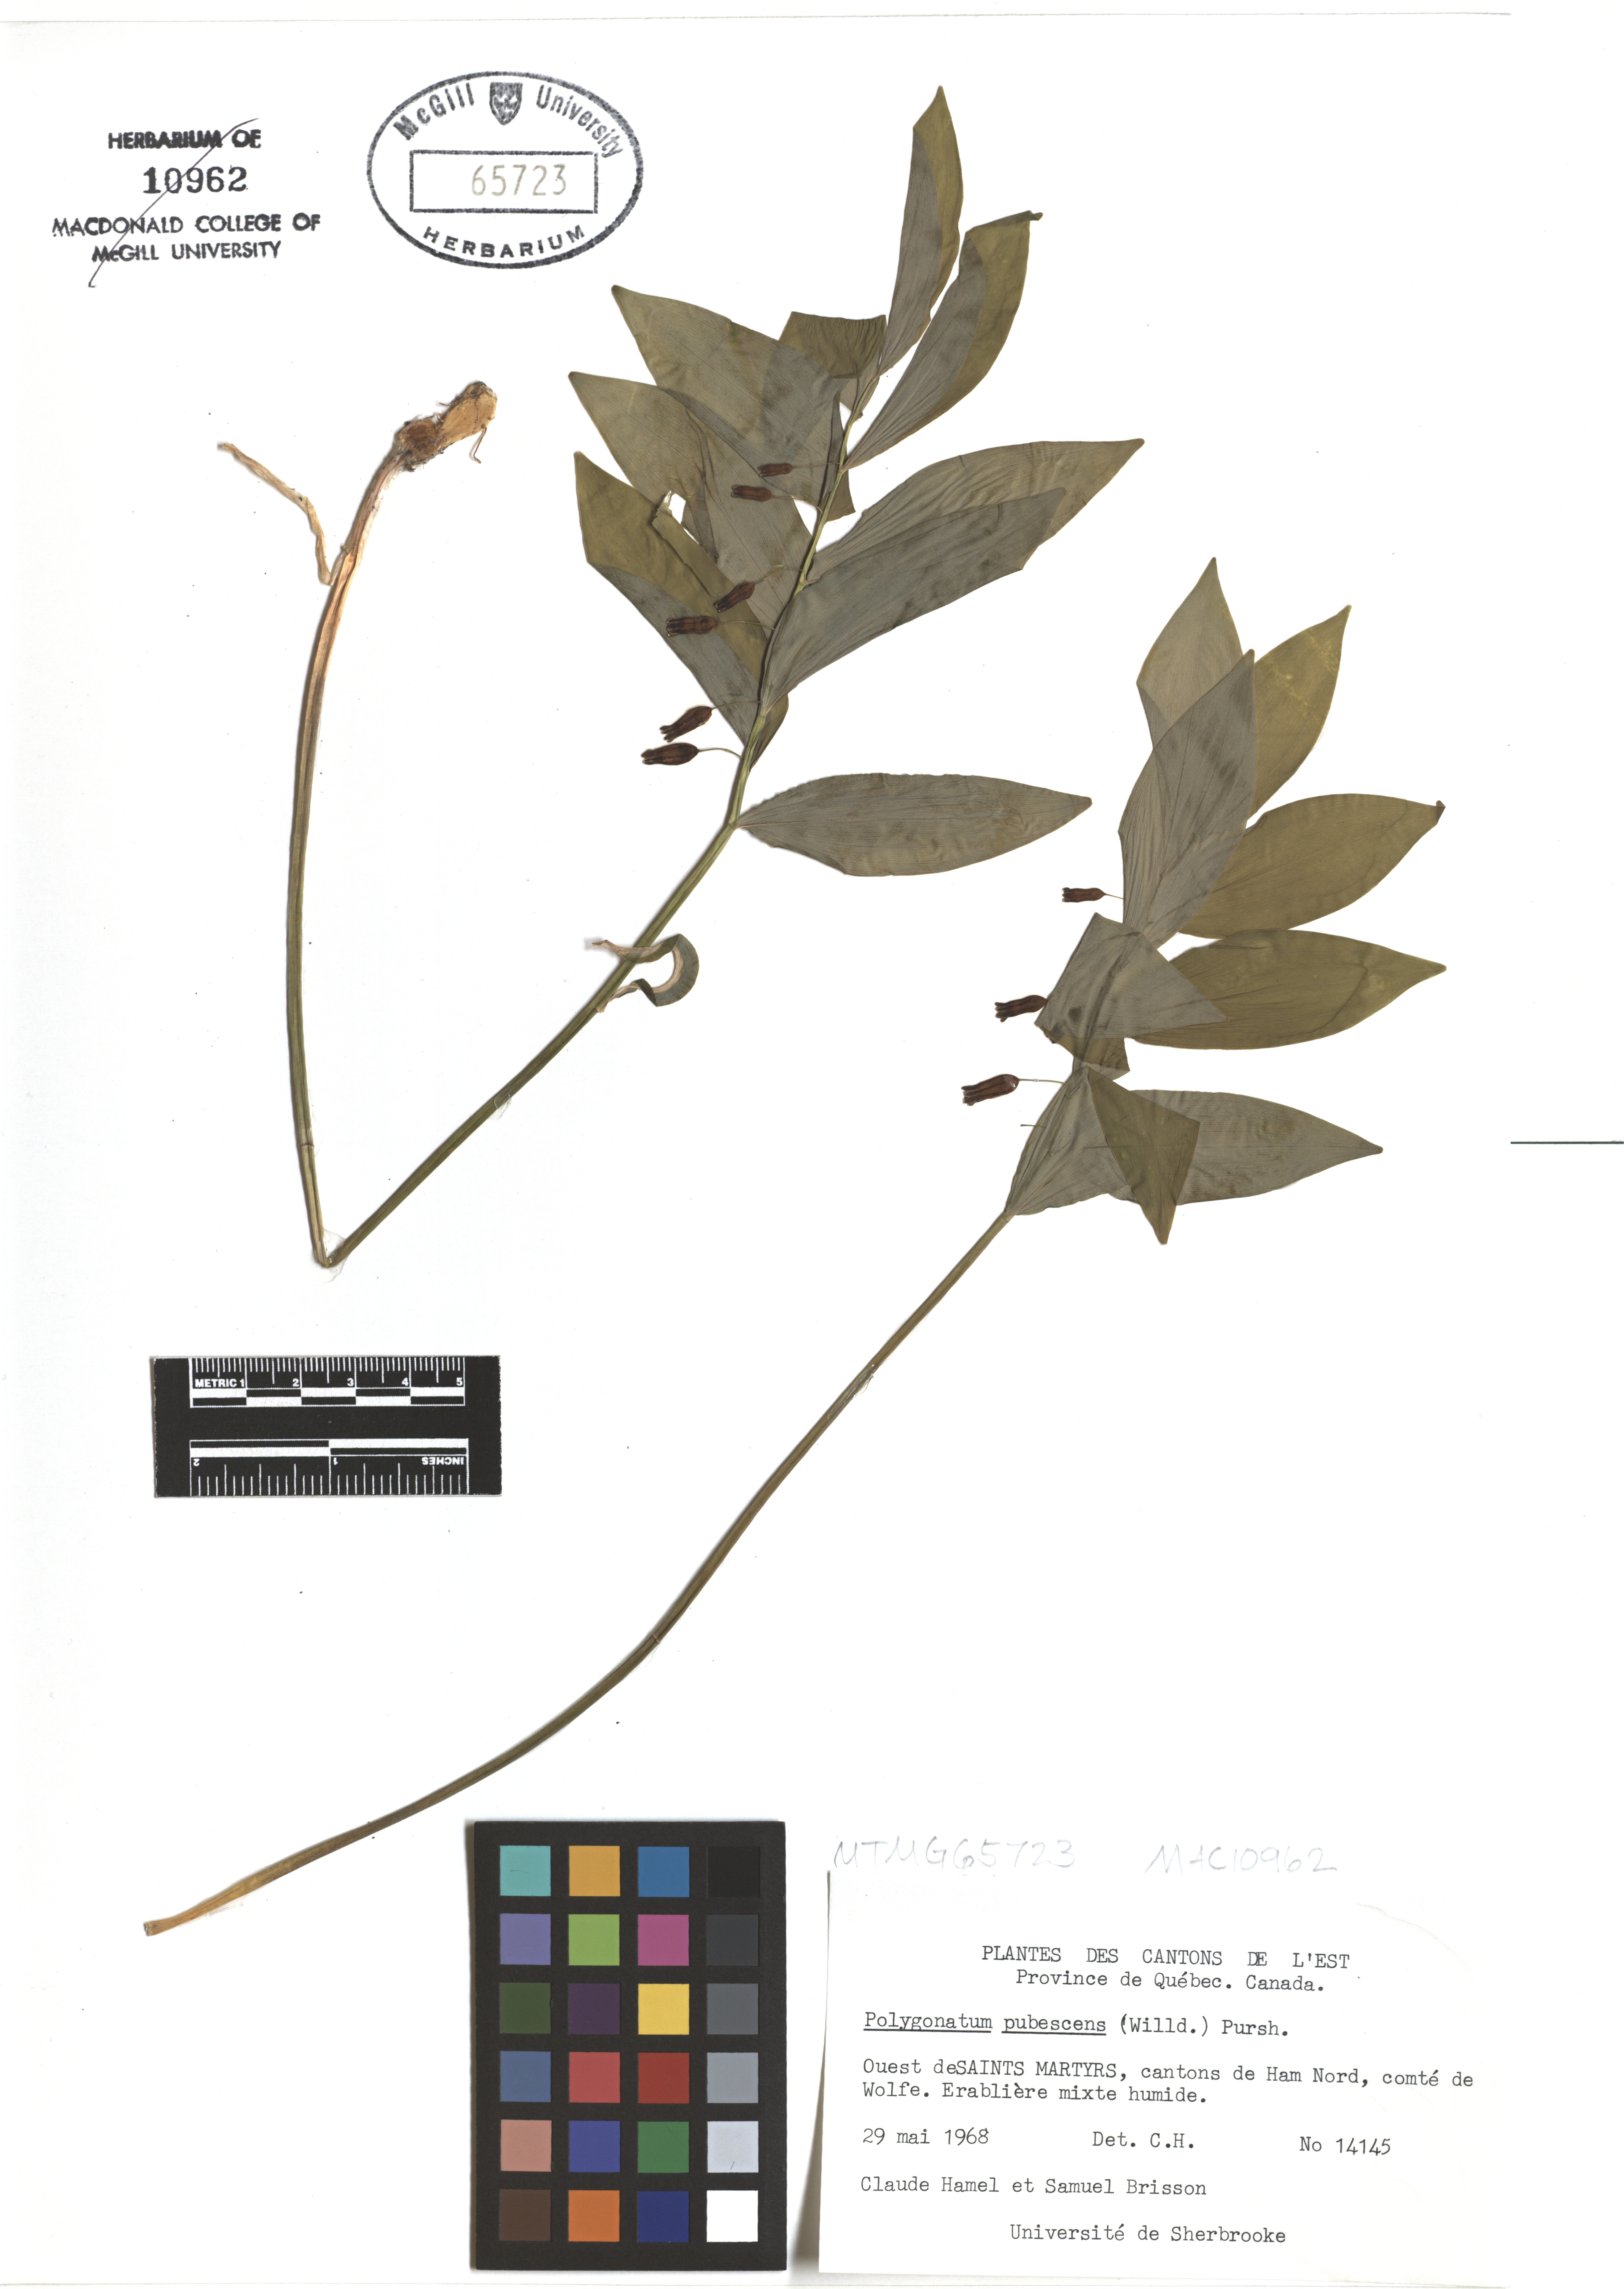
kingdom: Plantae
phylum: Tracheophyta
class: Liliopsida
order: Asparagales
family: Asparagaceae
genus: Polygonatum
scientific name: Polygonatum pubescens
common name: Downy solomon's seal
